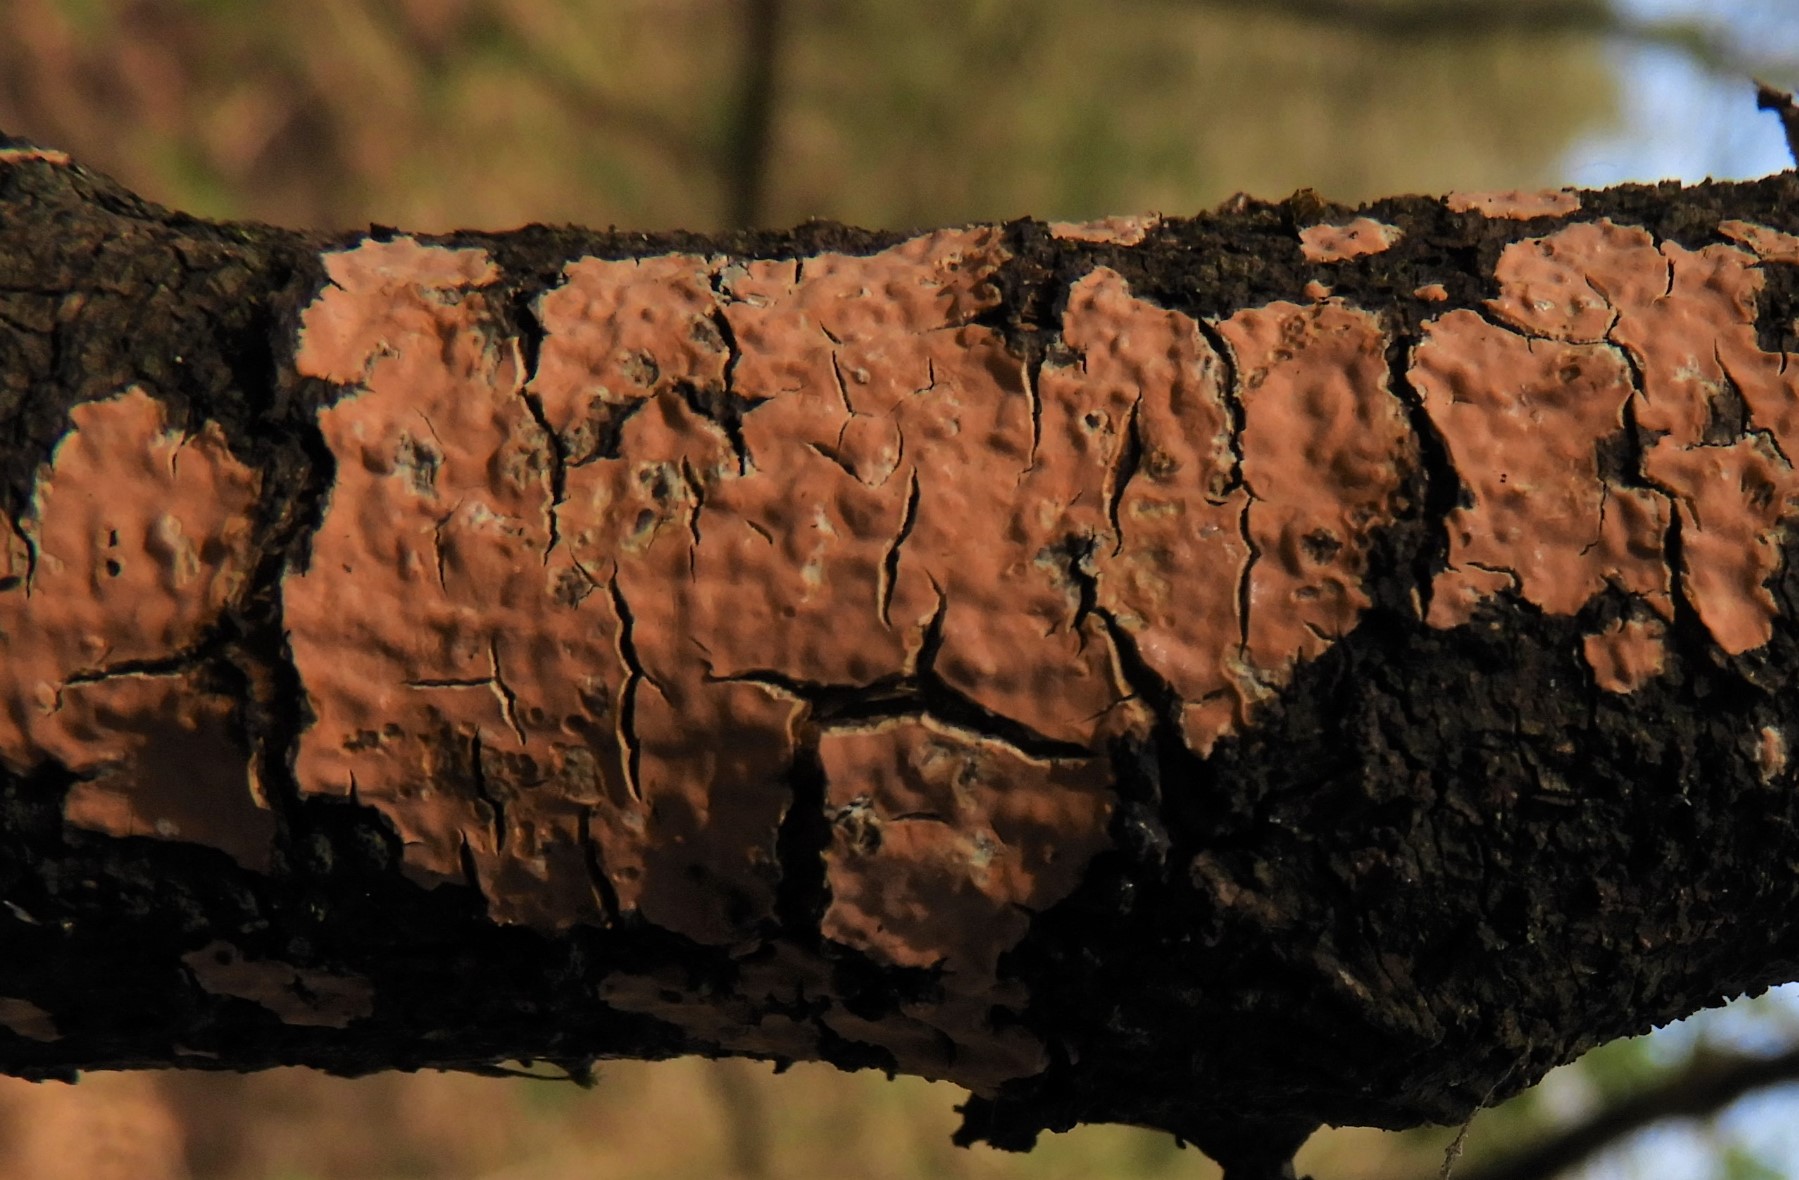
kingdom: Fungi
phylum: Basidiomycota
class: Agaricomycetes
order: Russulales
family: Peniophoraceae
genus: Peniophora
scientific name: Peniophora incarnata
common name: laksefarvet voksskind
